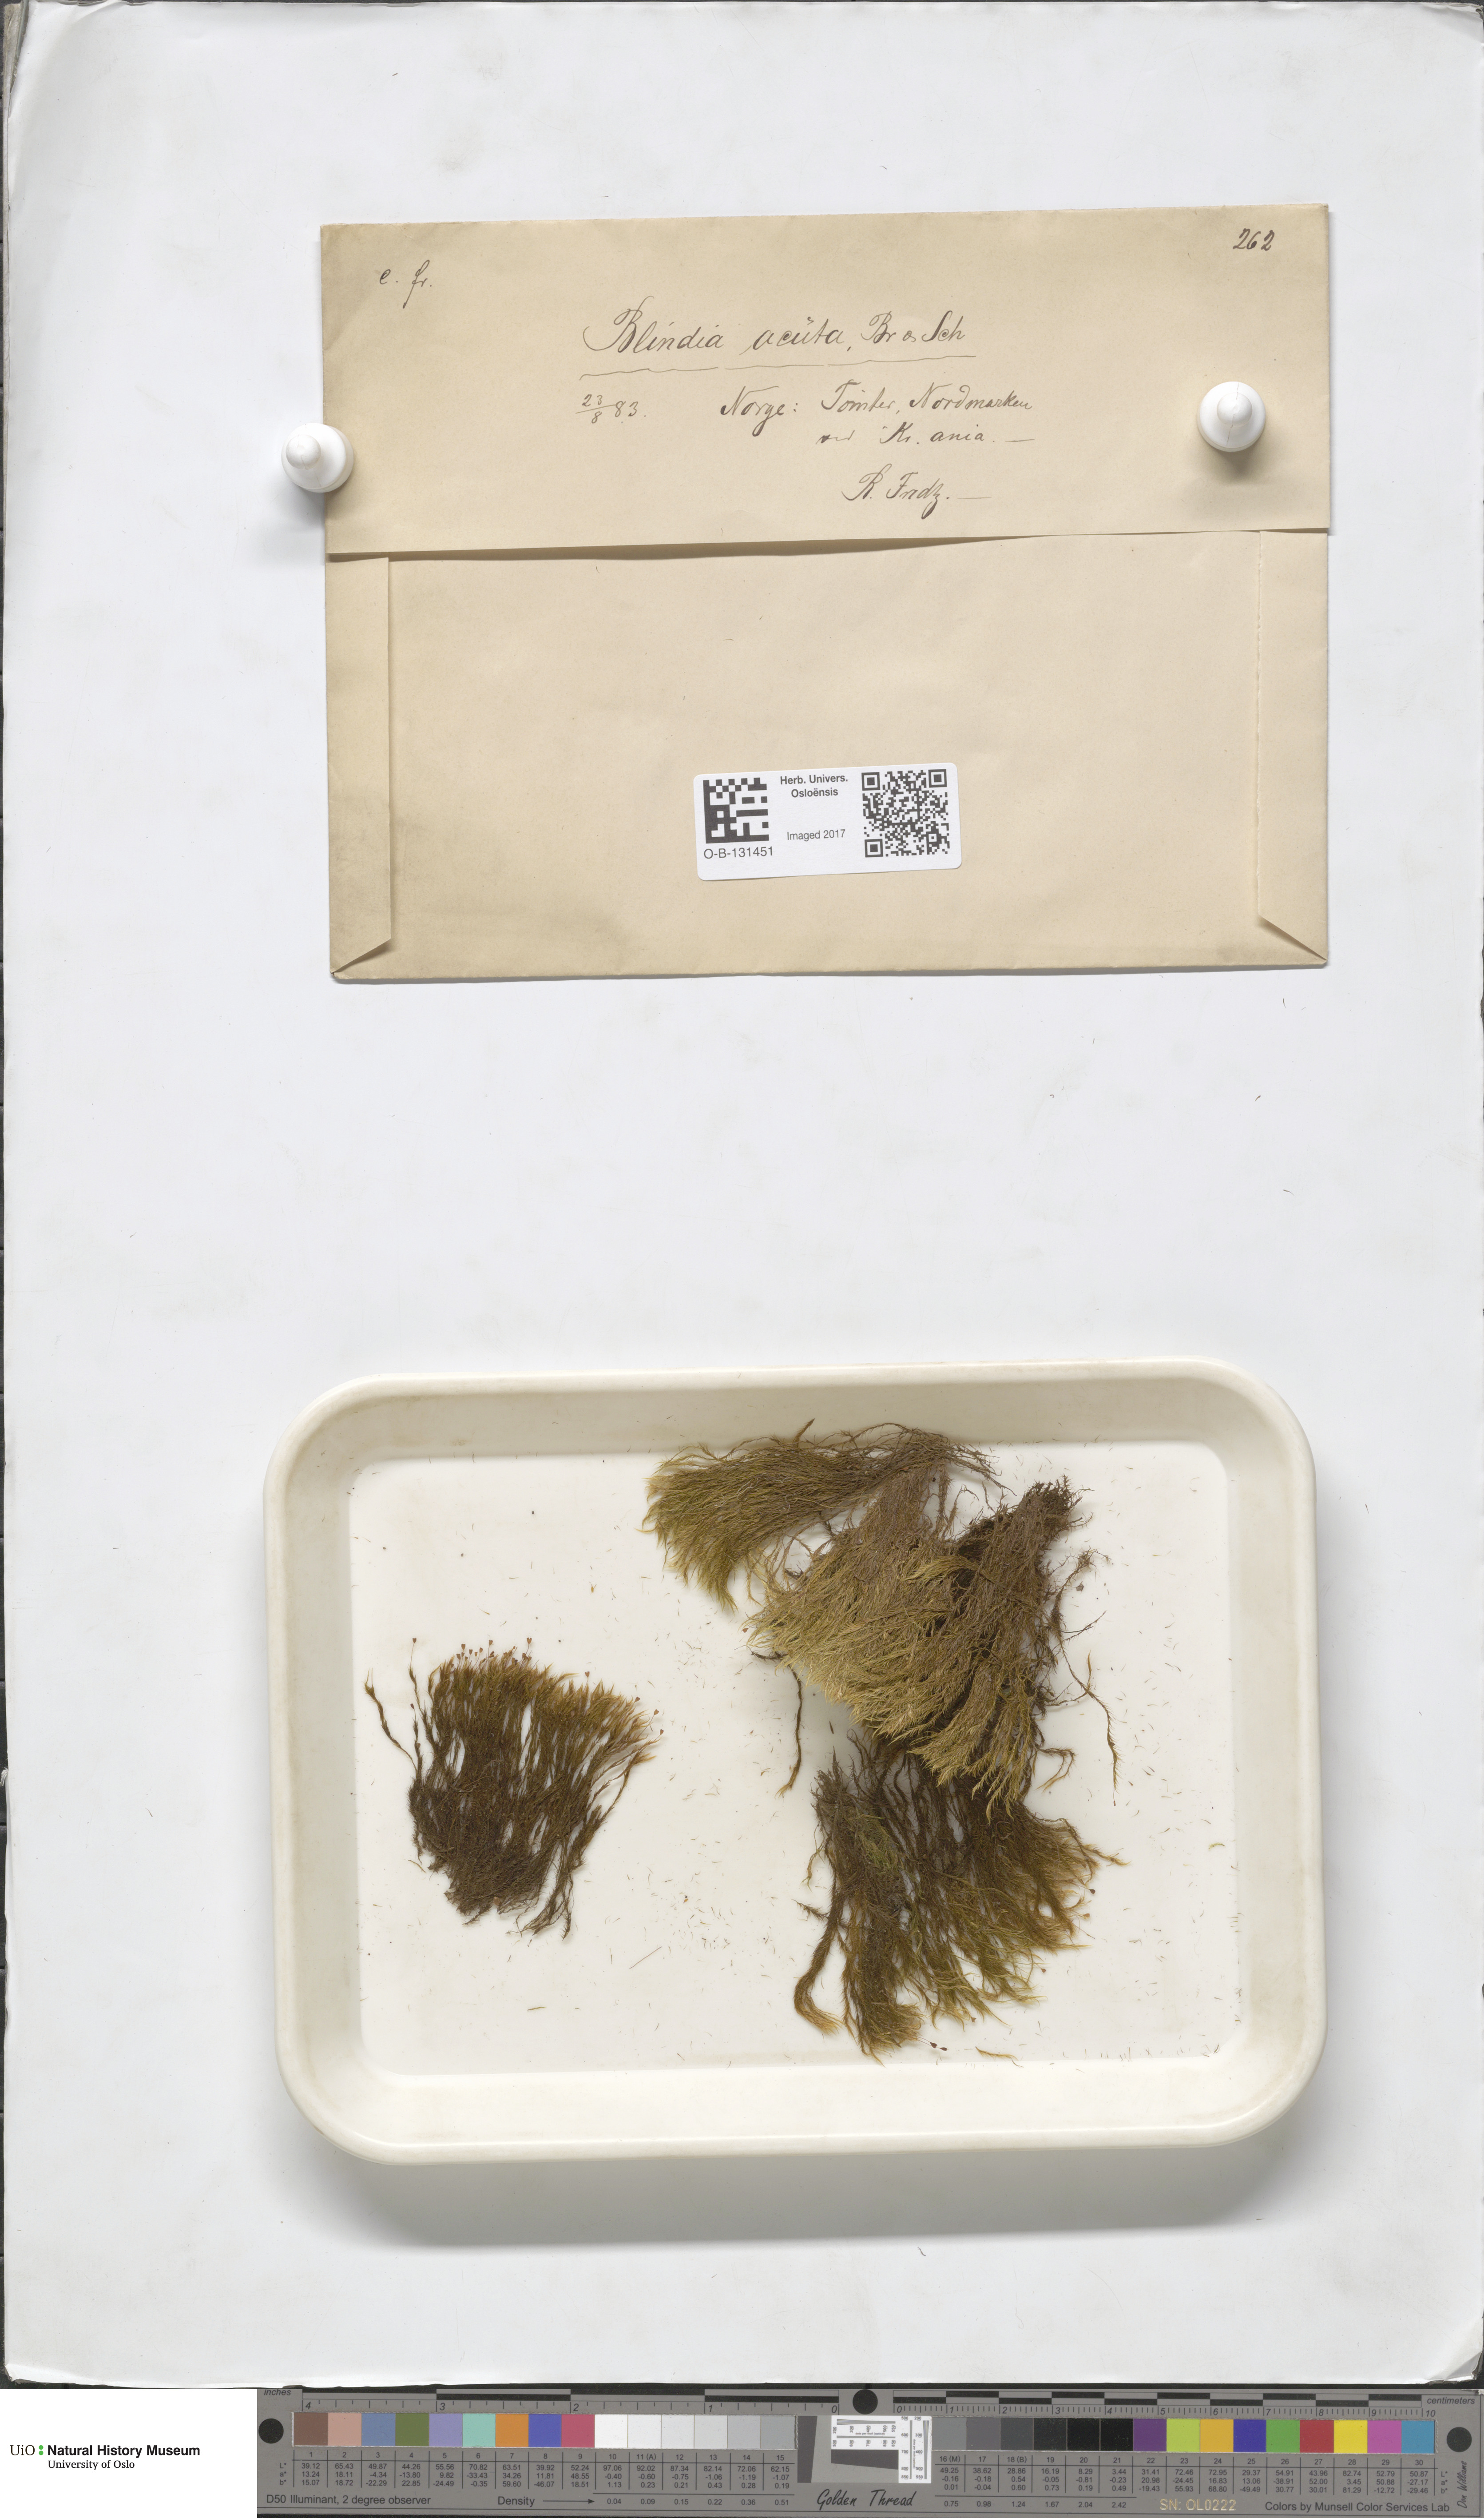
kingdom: Plantae
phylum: Bryophyta
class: Bryopsida
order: Grimmiales
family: Seligeriaceae
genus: Blindia
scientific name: Blindia acuta
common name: Sharp-leaved blind's moss
